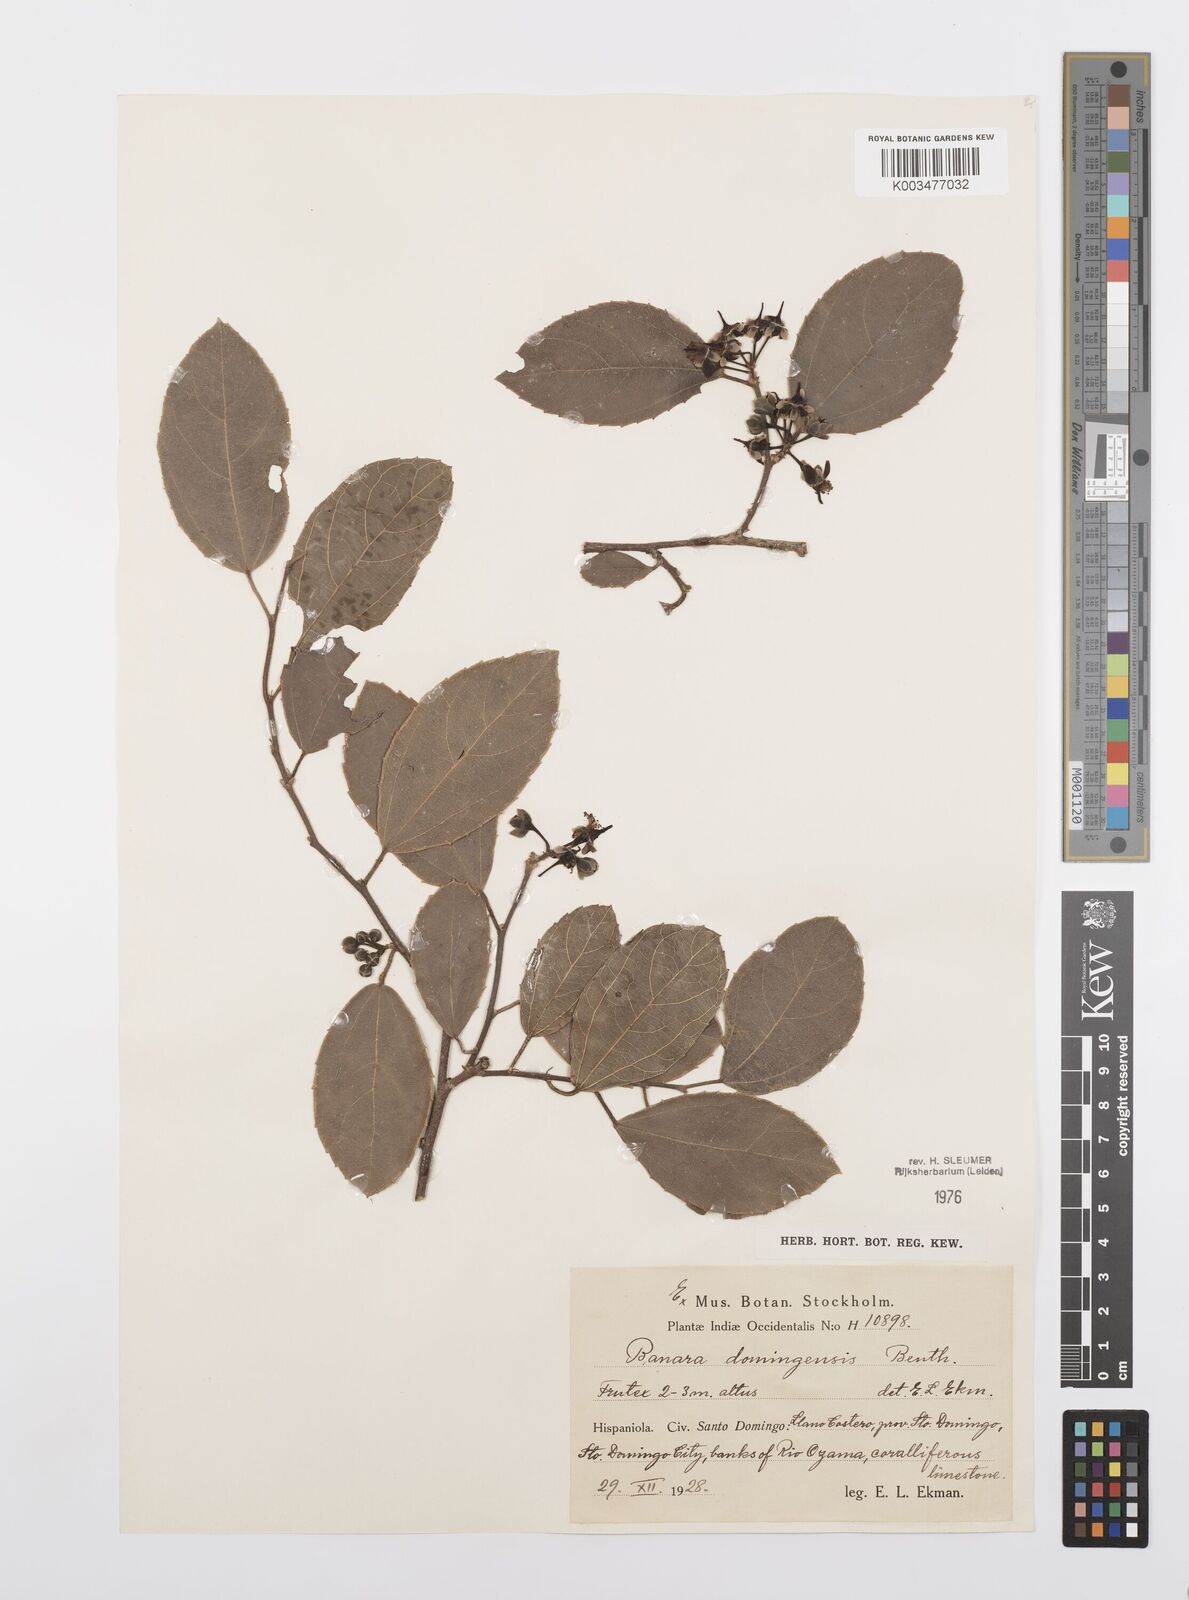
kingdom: Plantae
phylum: Tracheophyta
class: Magnoliopsida
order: Malpighiales
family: Salicaceae
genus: Banara
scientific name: Banara domingensis
